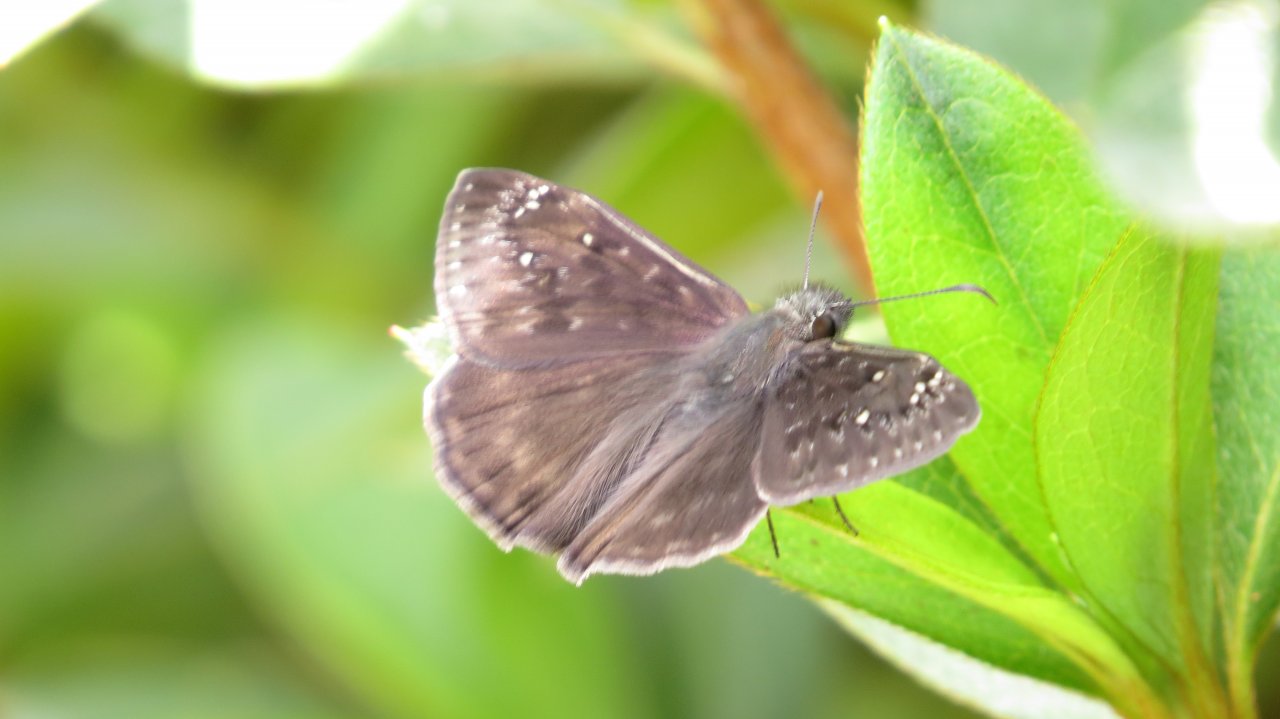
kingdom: Animalia
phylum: Arthropoda
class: Insecta
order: Lepidoptera
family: Hesperiidae
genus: Gesta
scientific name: Gesta
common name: Horace's Duskywing
